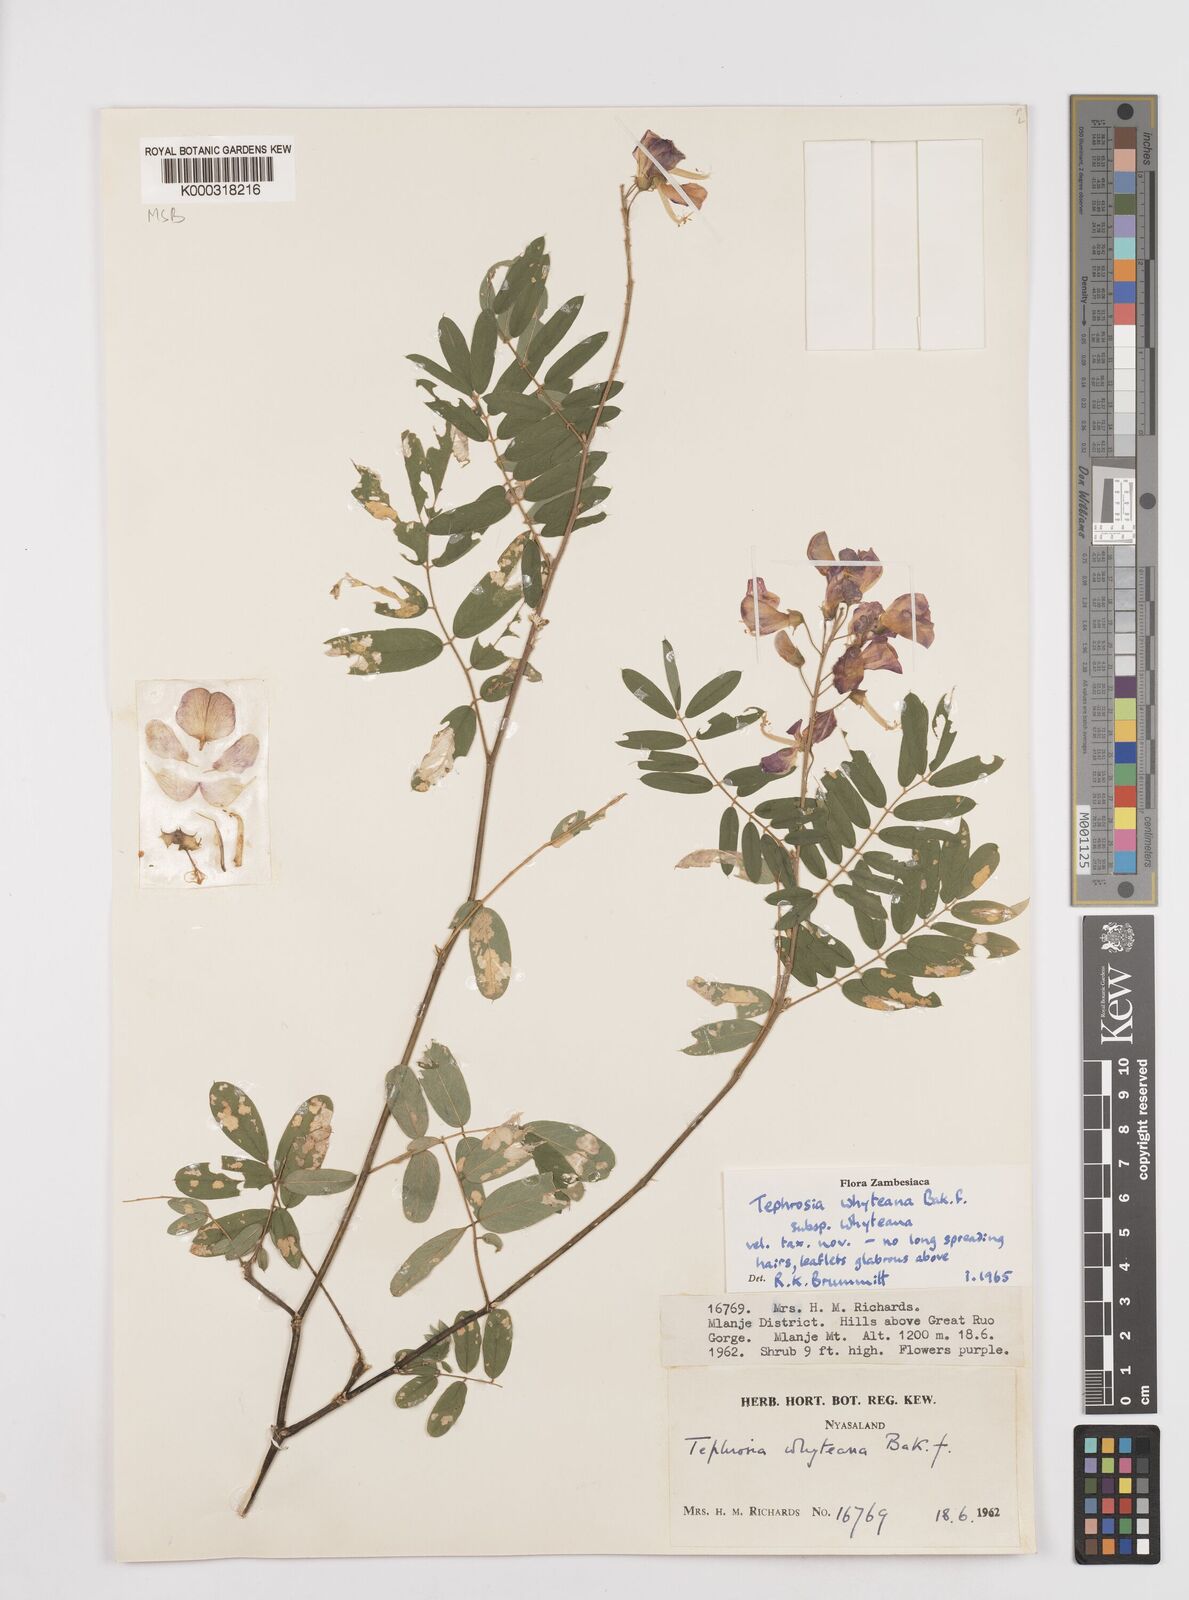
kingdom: Plantae
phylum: Tracheophyta
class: Magnoliopsida
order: Fabales
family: Fabaceae
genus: Tephrosia
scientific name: Tephrosia whyteana
